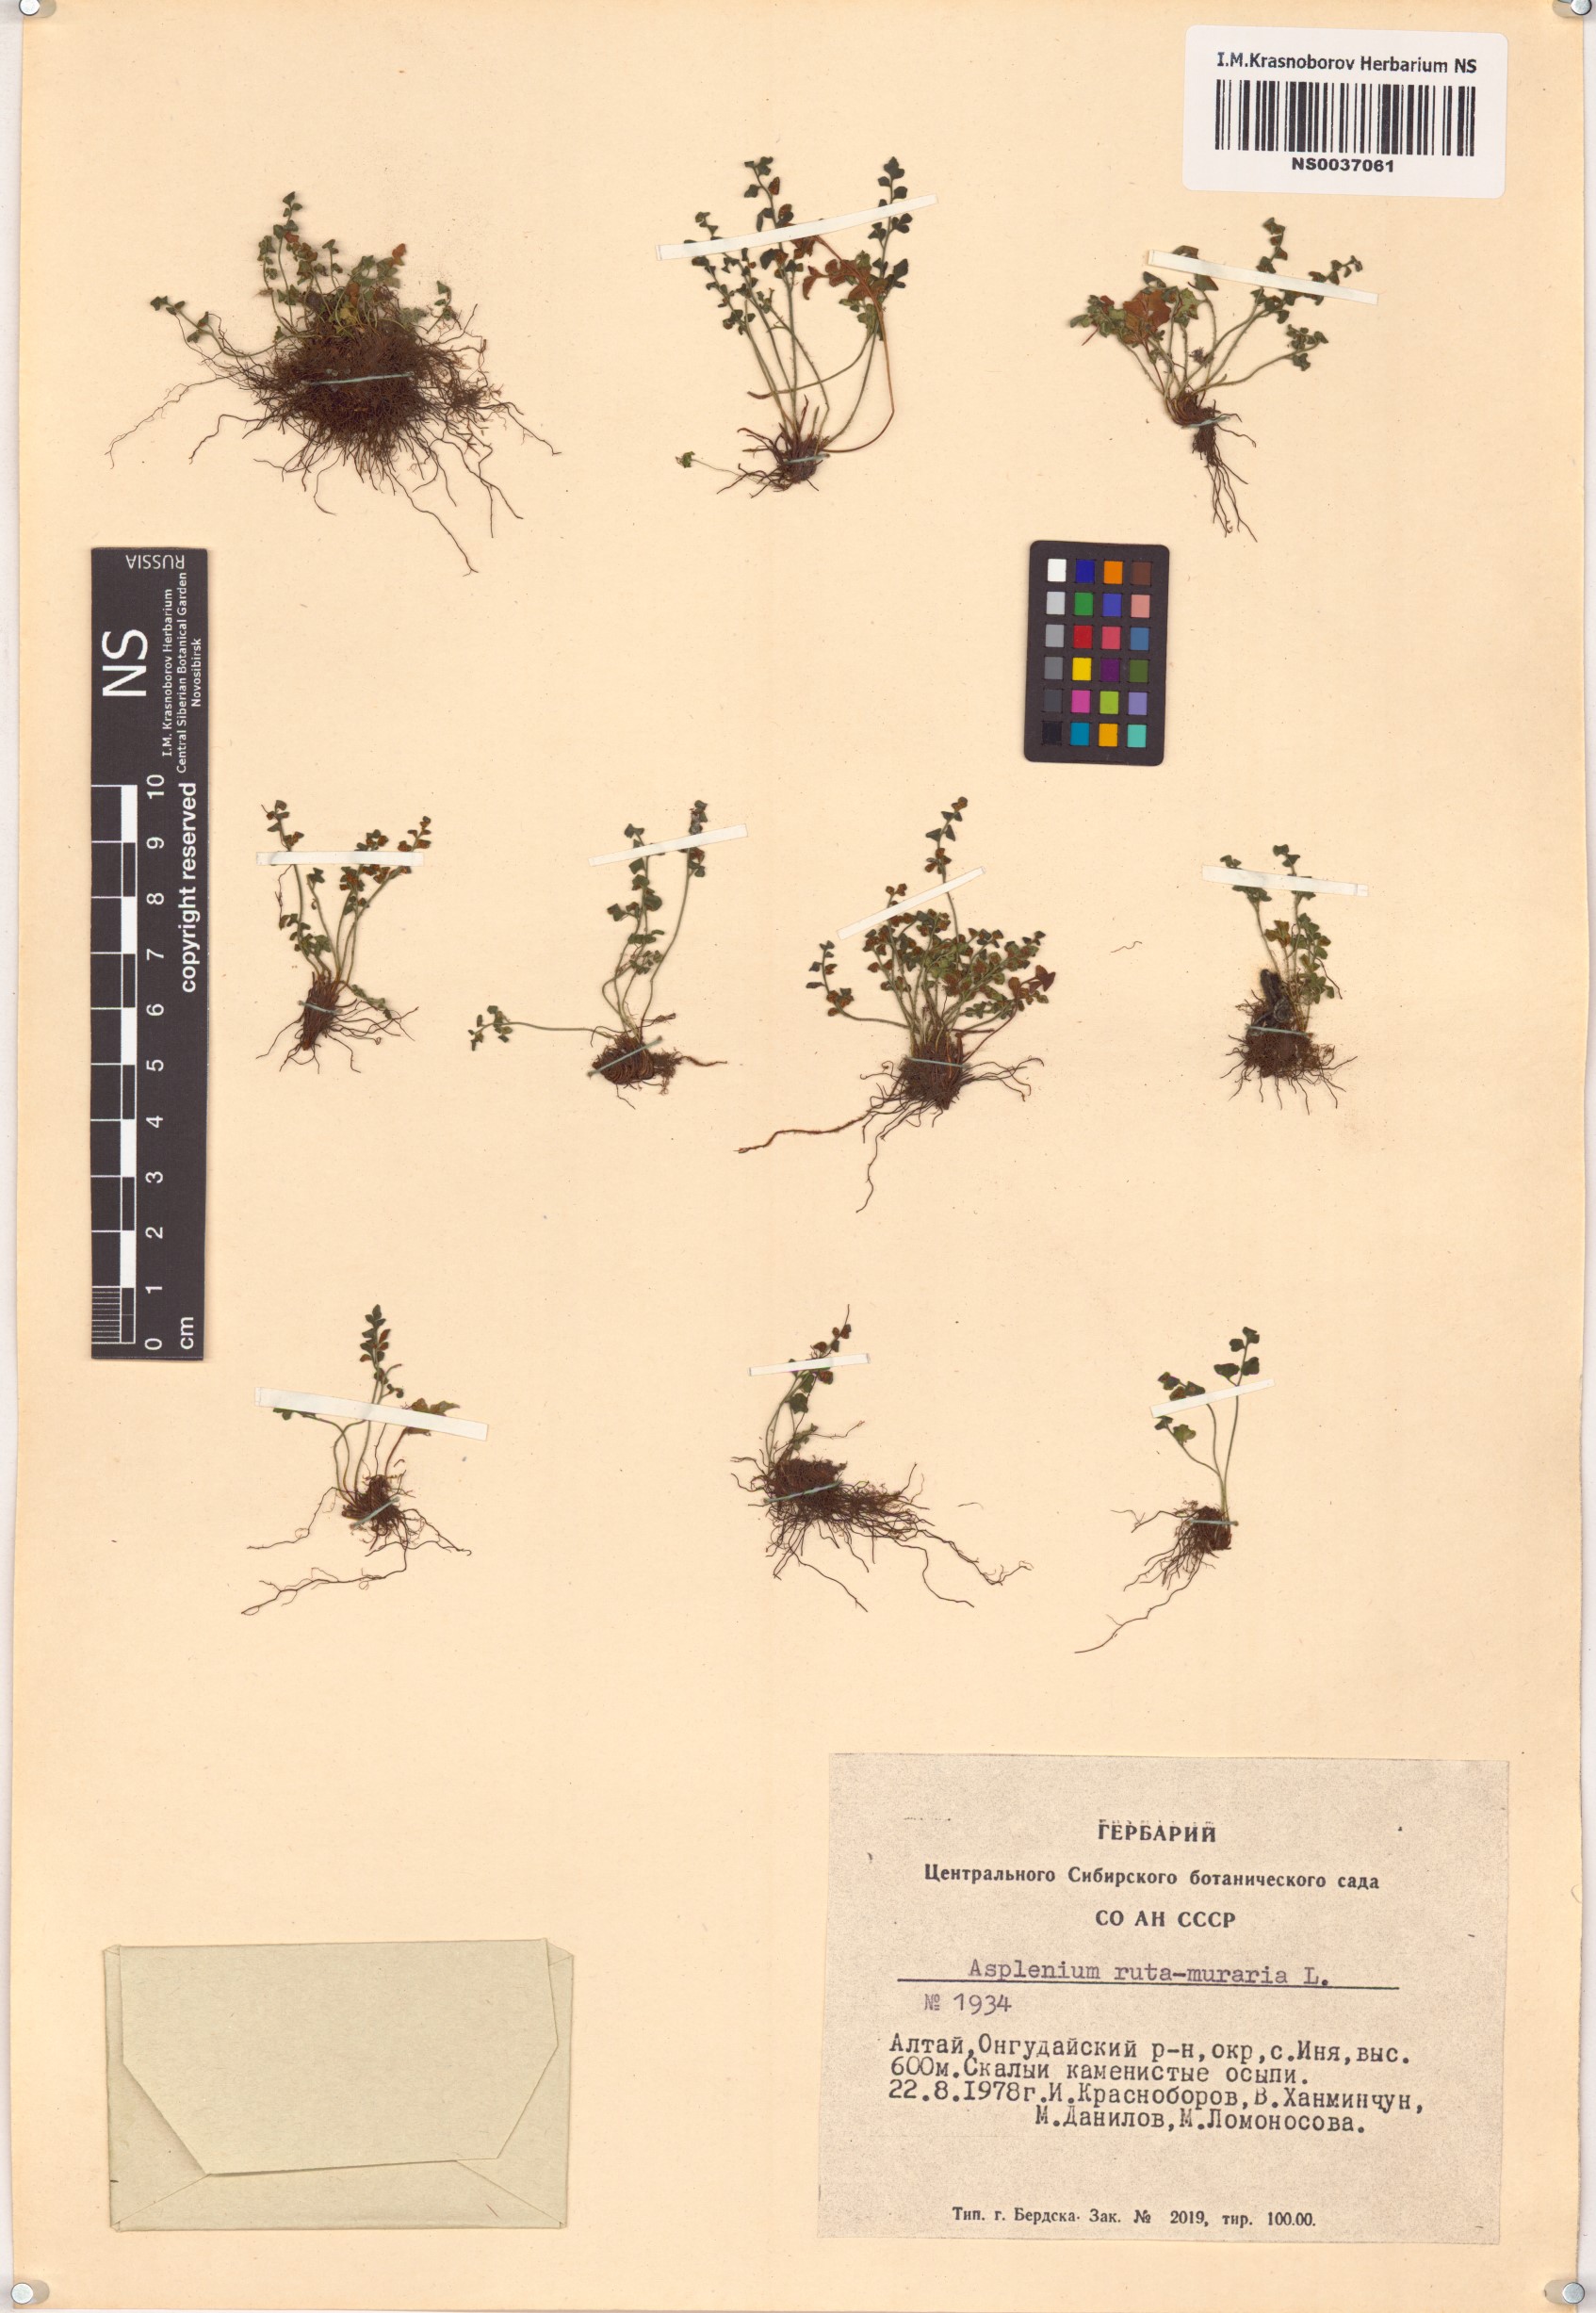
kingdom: Plantae
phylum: Tracheophyta
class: Polypodiopsida
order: Polypodiales
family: Aspleniaceae
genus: Asplenium
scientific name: Asplenium ruta-muraria
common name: Wall-rue
